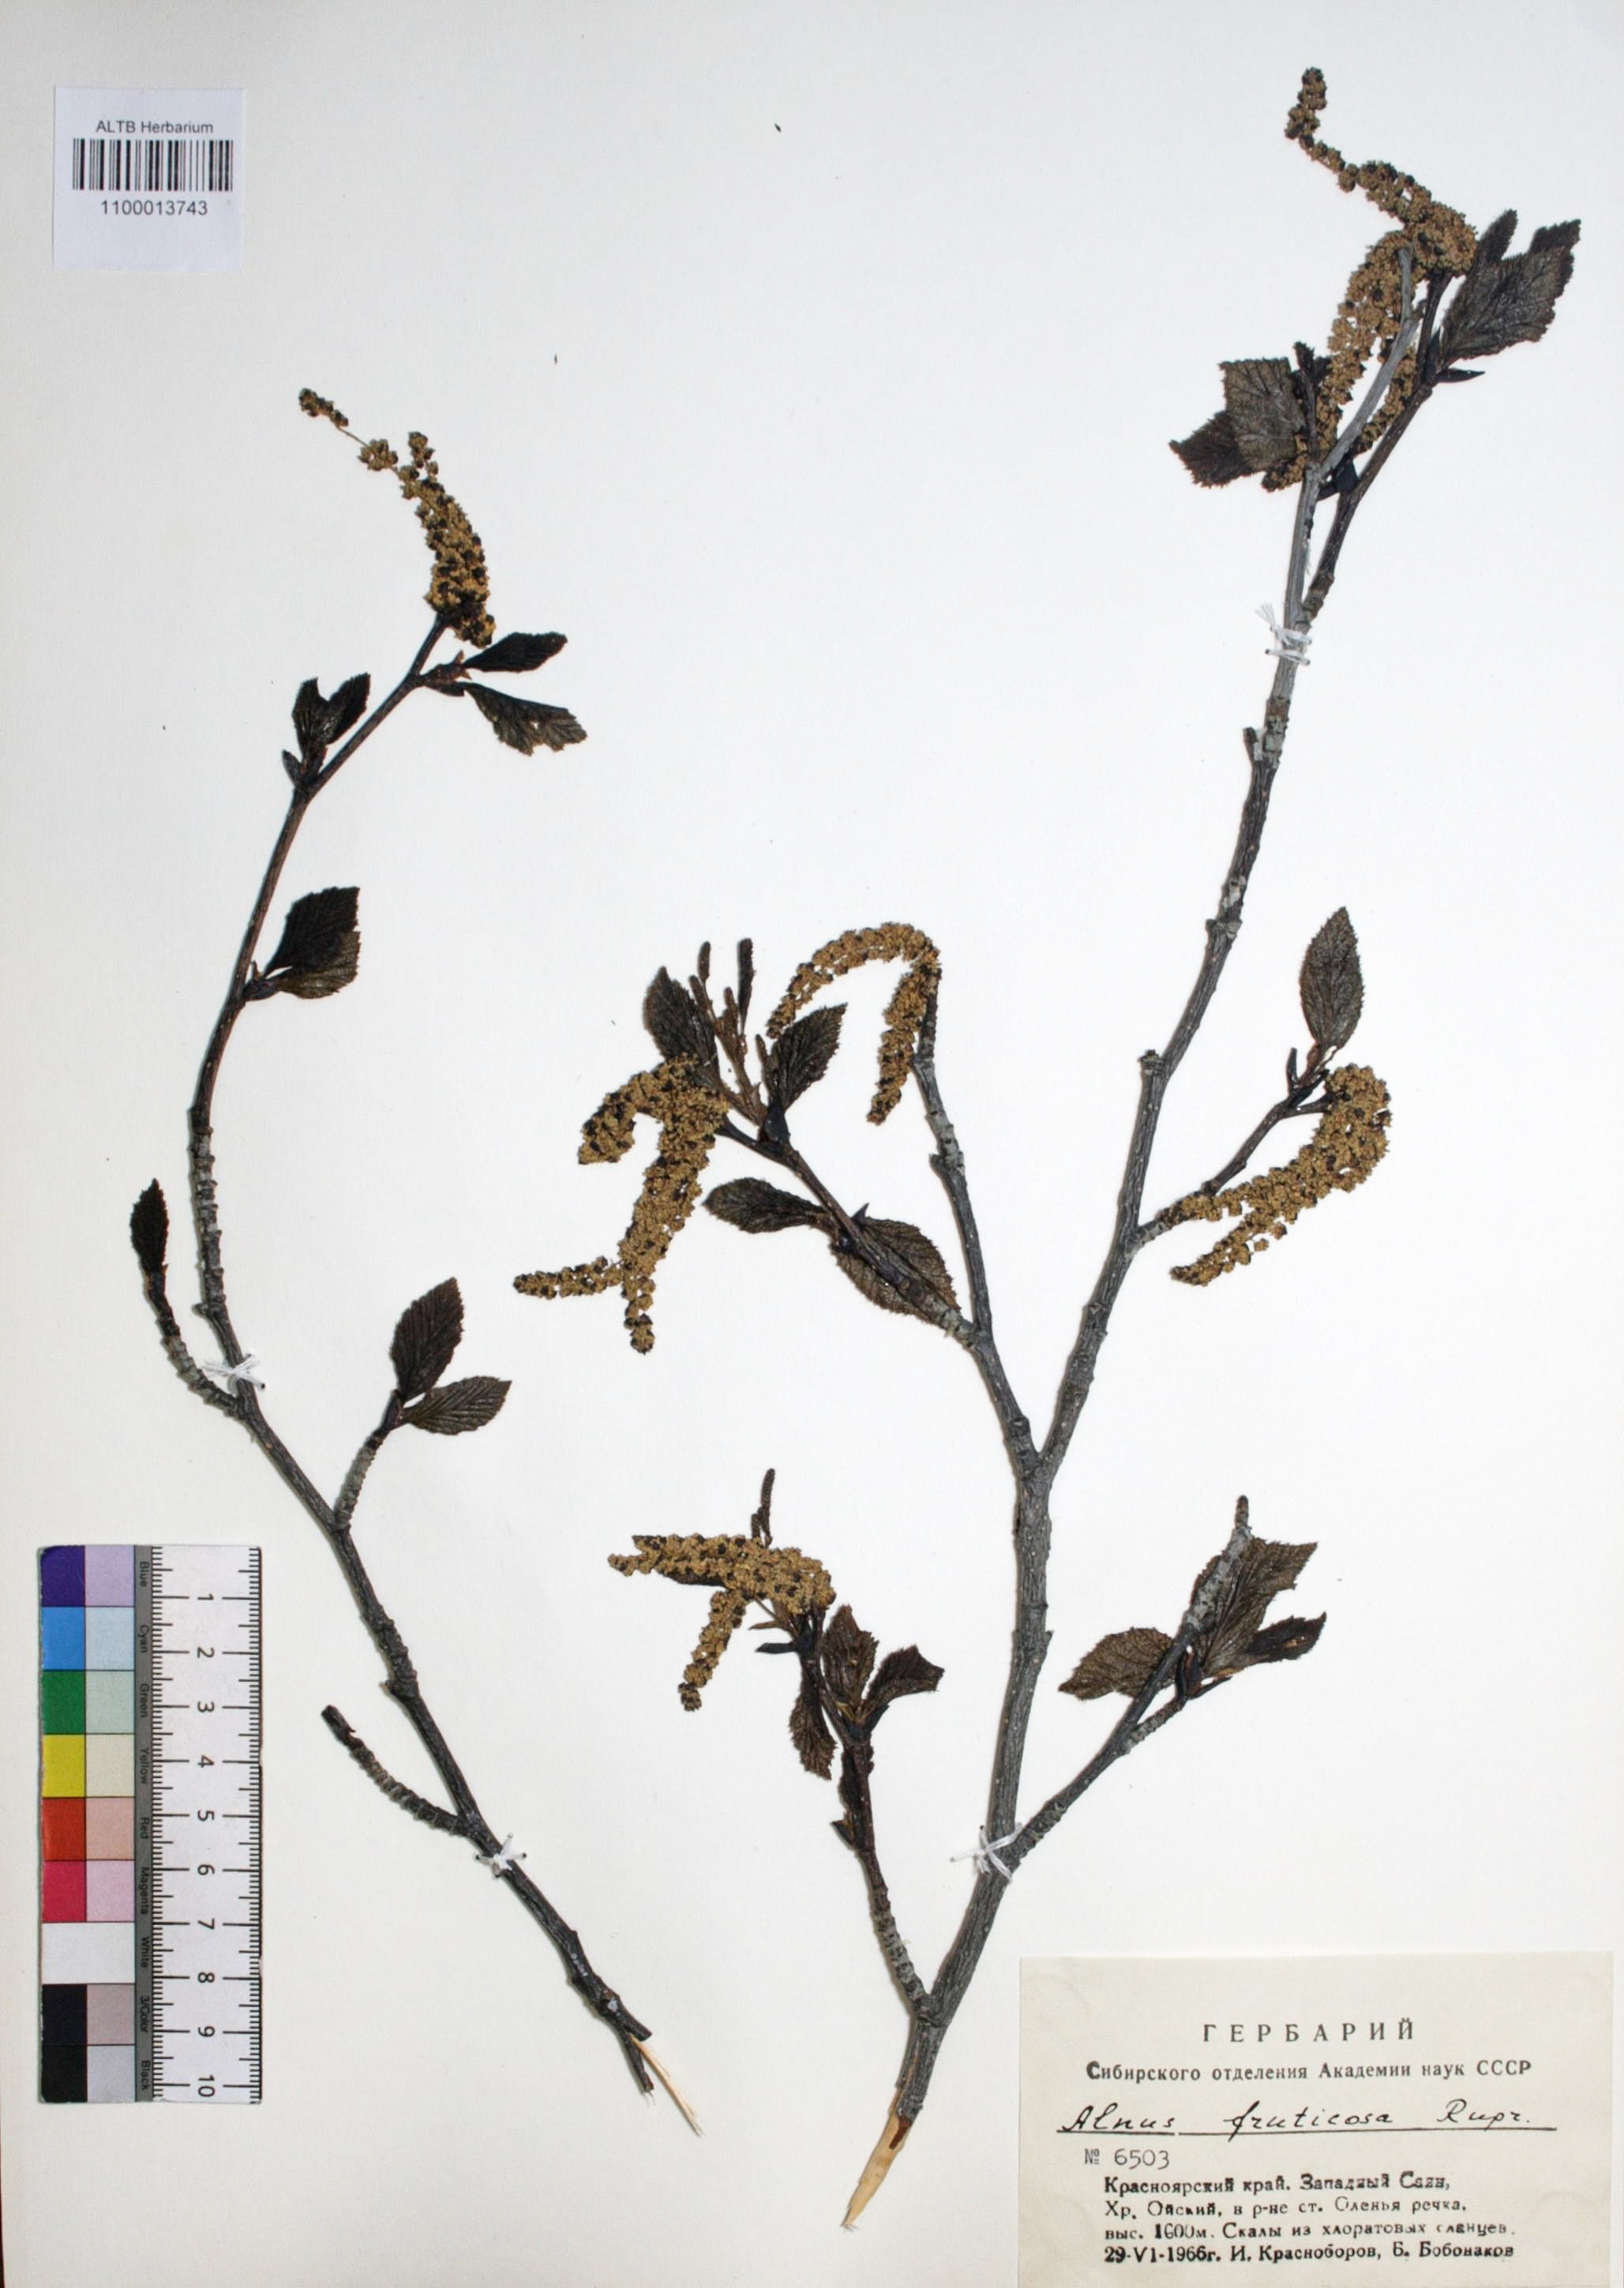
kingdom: Plantae
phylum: Tracheophyta
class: Magnoliopsida
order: Fagales
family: Betulaceae
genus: Alnus
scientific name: Alnus alnobetula
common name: Green alder
